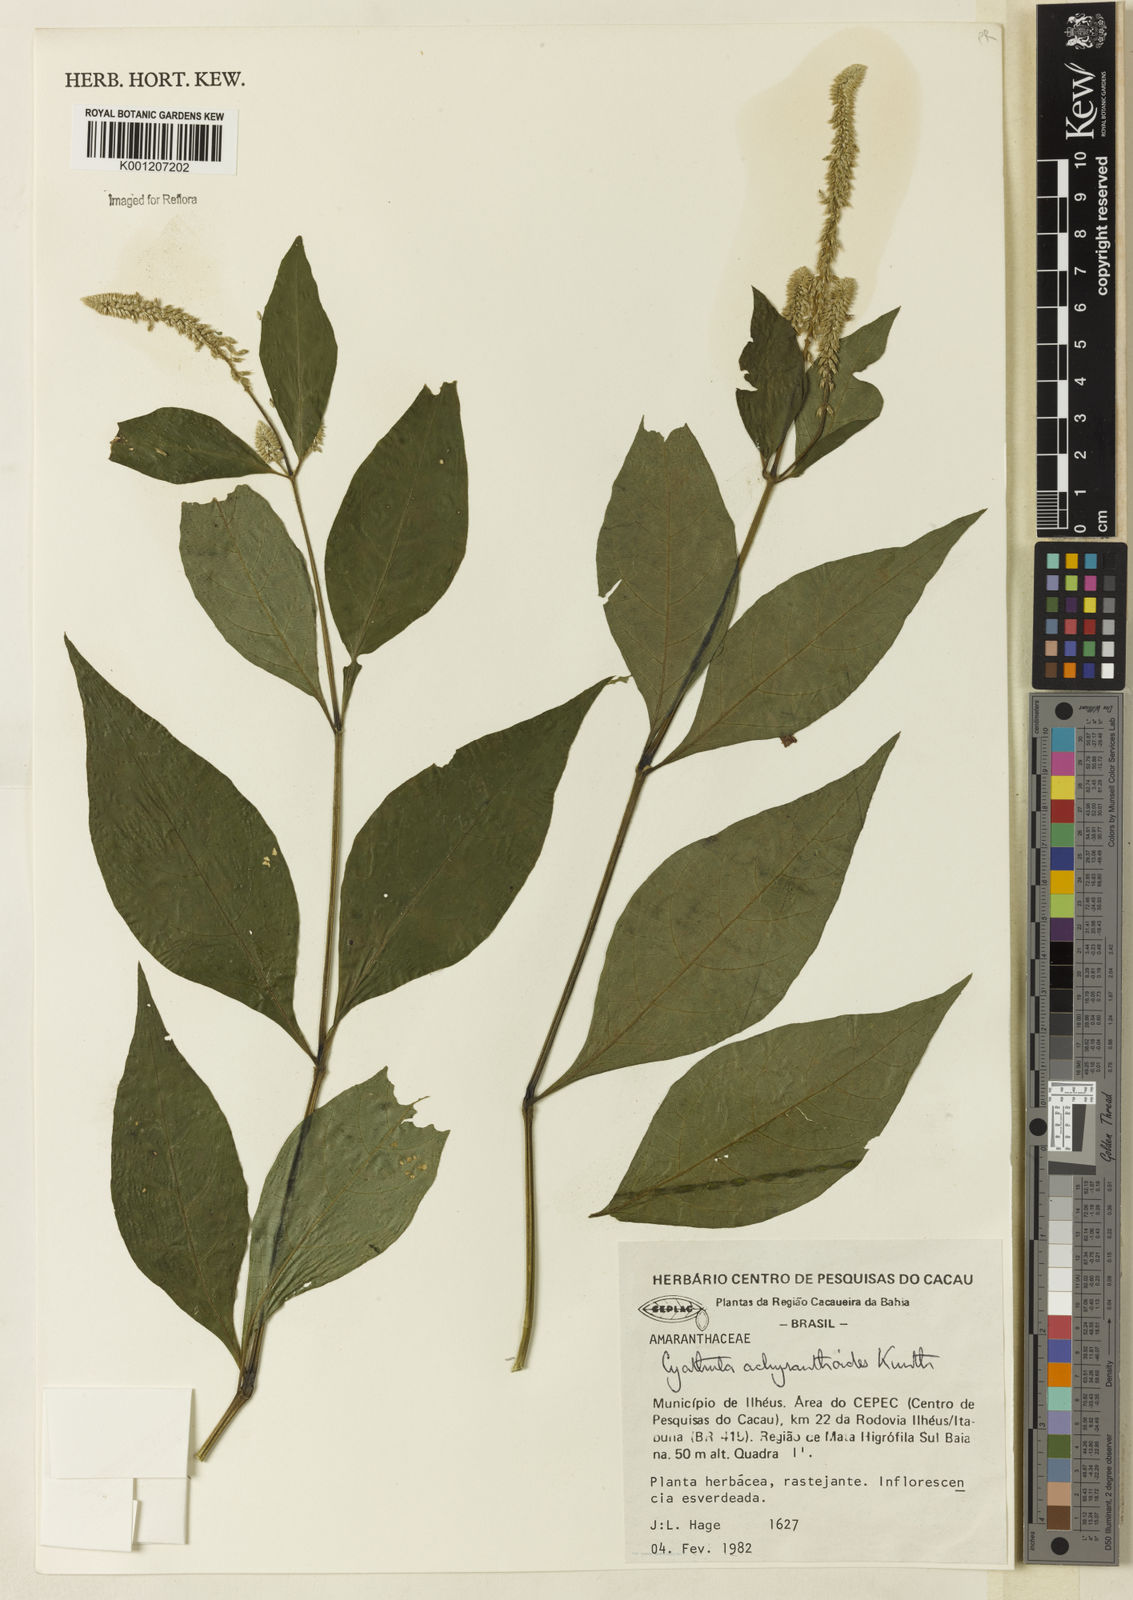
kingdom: Plantae
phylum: Tracheophyta
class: Magnoliopsida
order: Caryophyllales
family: Amaranthaceae
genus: Cyathula
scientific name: Cyathula achyranthoides
